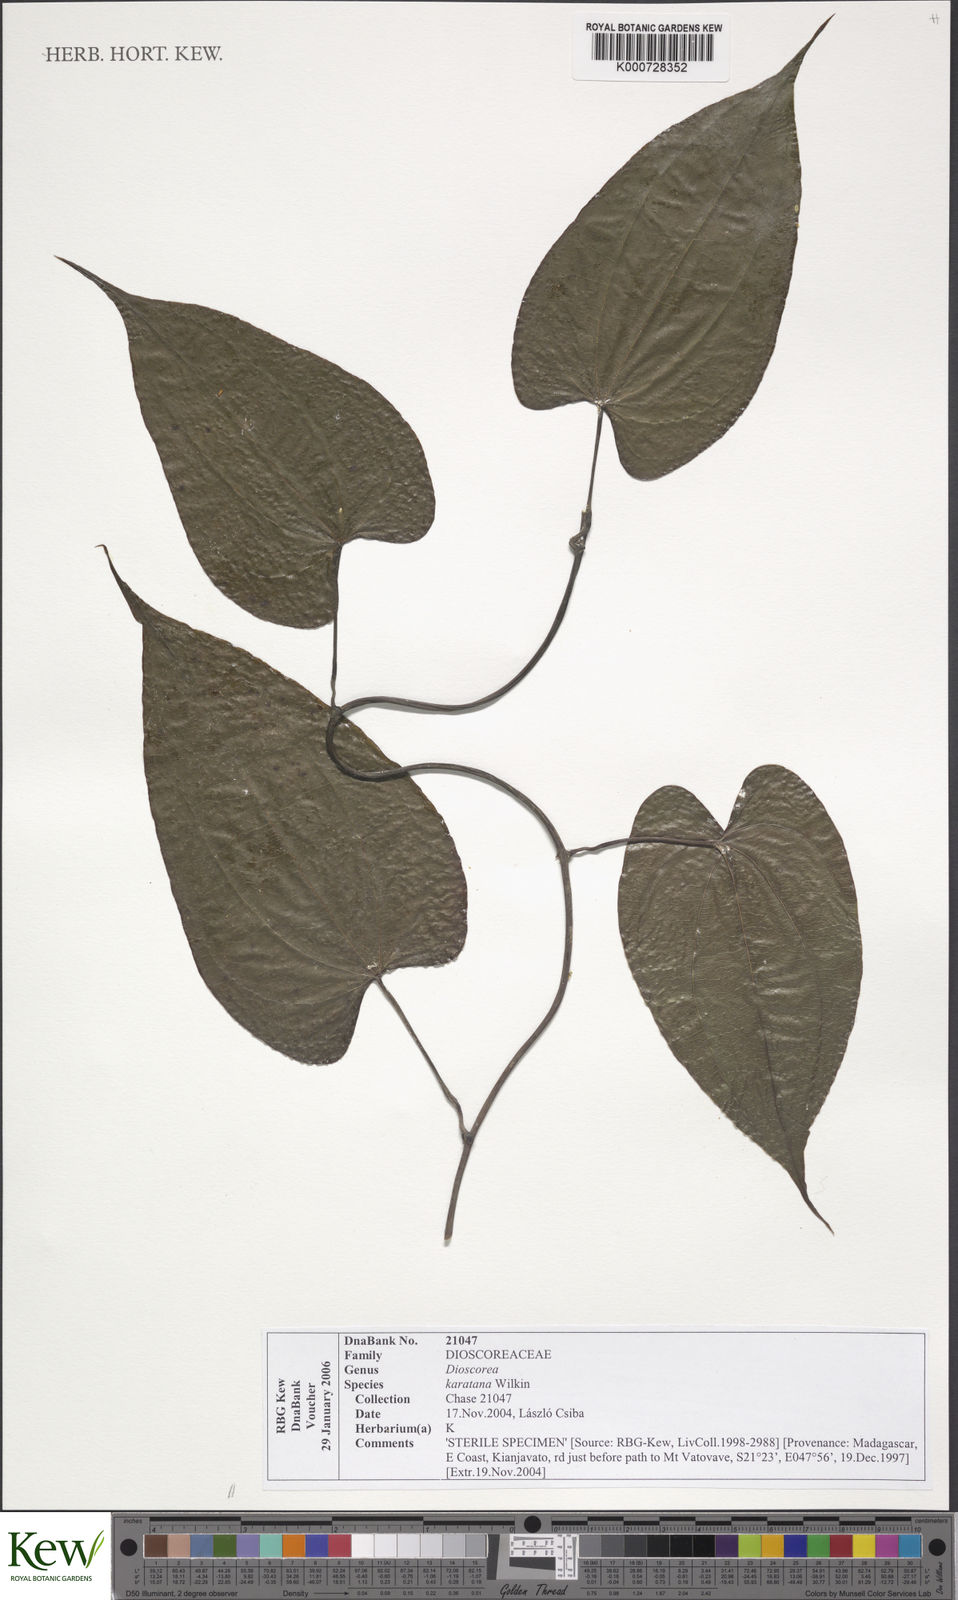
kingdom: Plantae
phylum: Tracheophyta
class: Liliopsida
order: Dioscoreales
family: Dioscoreaceae
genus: Dioscorea
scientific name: Dioscorea madecassa
